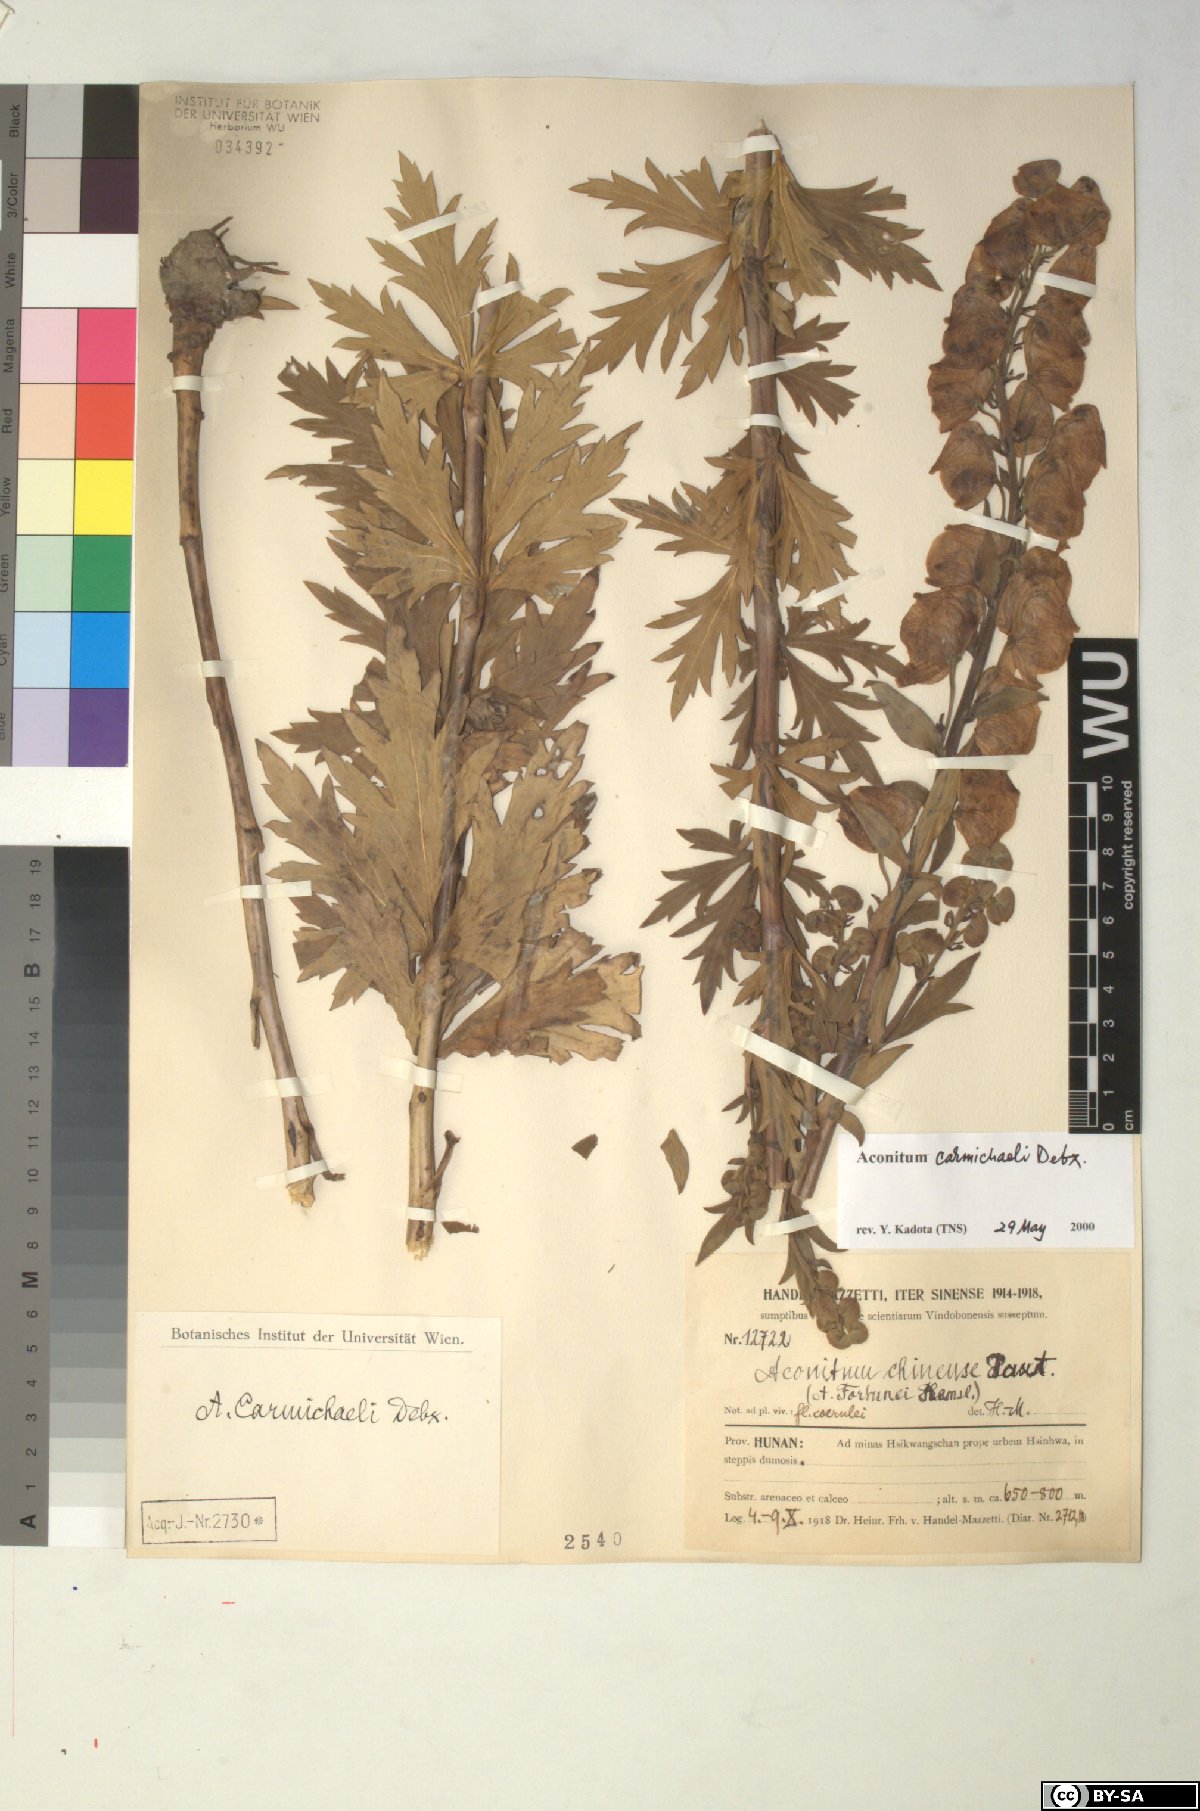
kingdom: Plantae
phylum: Tracheophyta
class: Magnoliopsida
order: Ranunculales
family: Ranunculaceae
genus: Aconitum
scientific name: Aconitum carmichaelii
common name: Carmichael's monkshood
